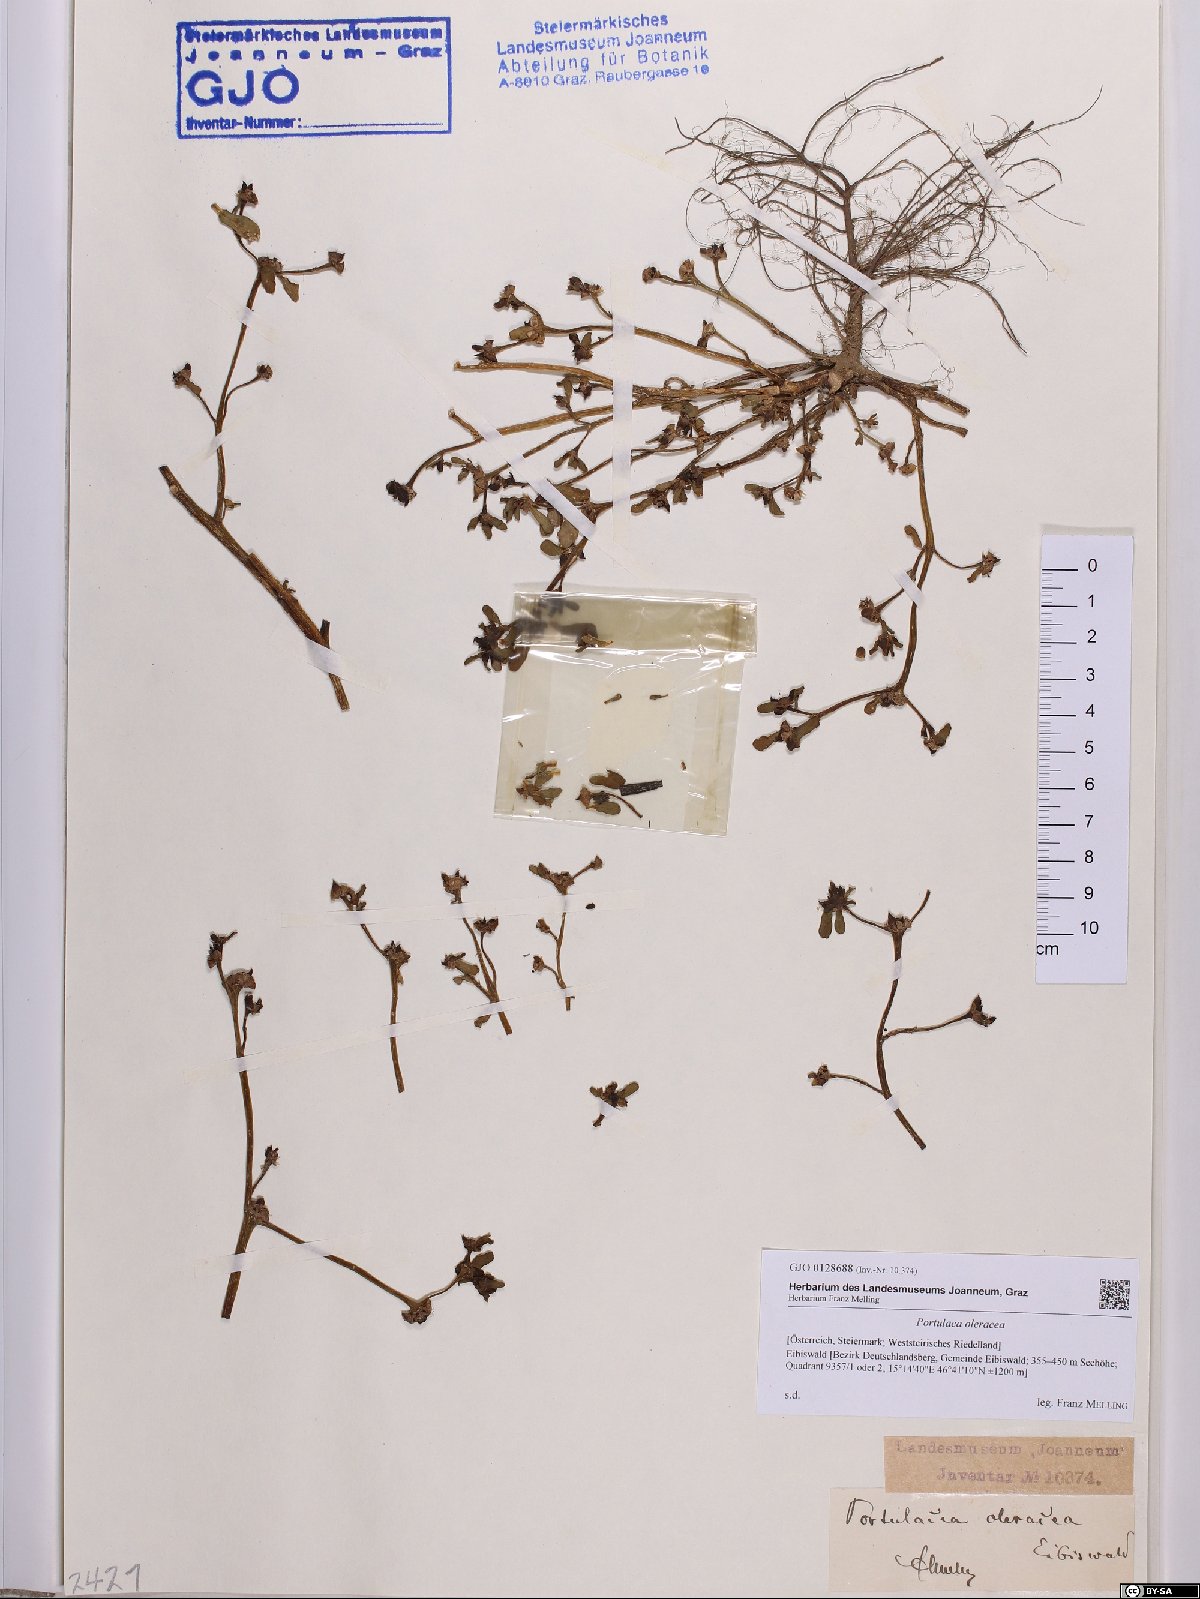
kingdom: Plantae
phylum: Tracheophyta
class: Magnoliopsida
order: Caryophyllales
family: Portulacaceae
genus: Portulaca
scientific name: Portulaca oleracea
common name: Common purslane
